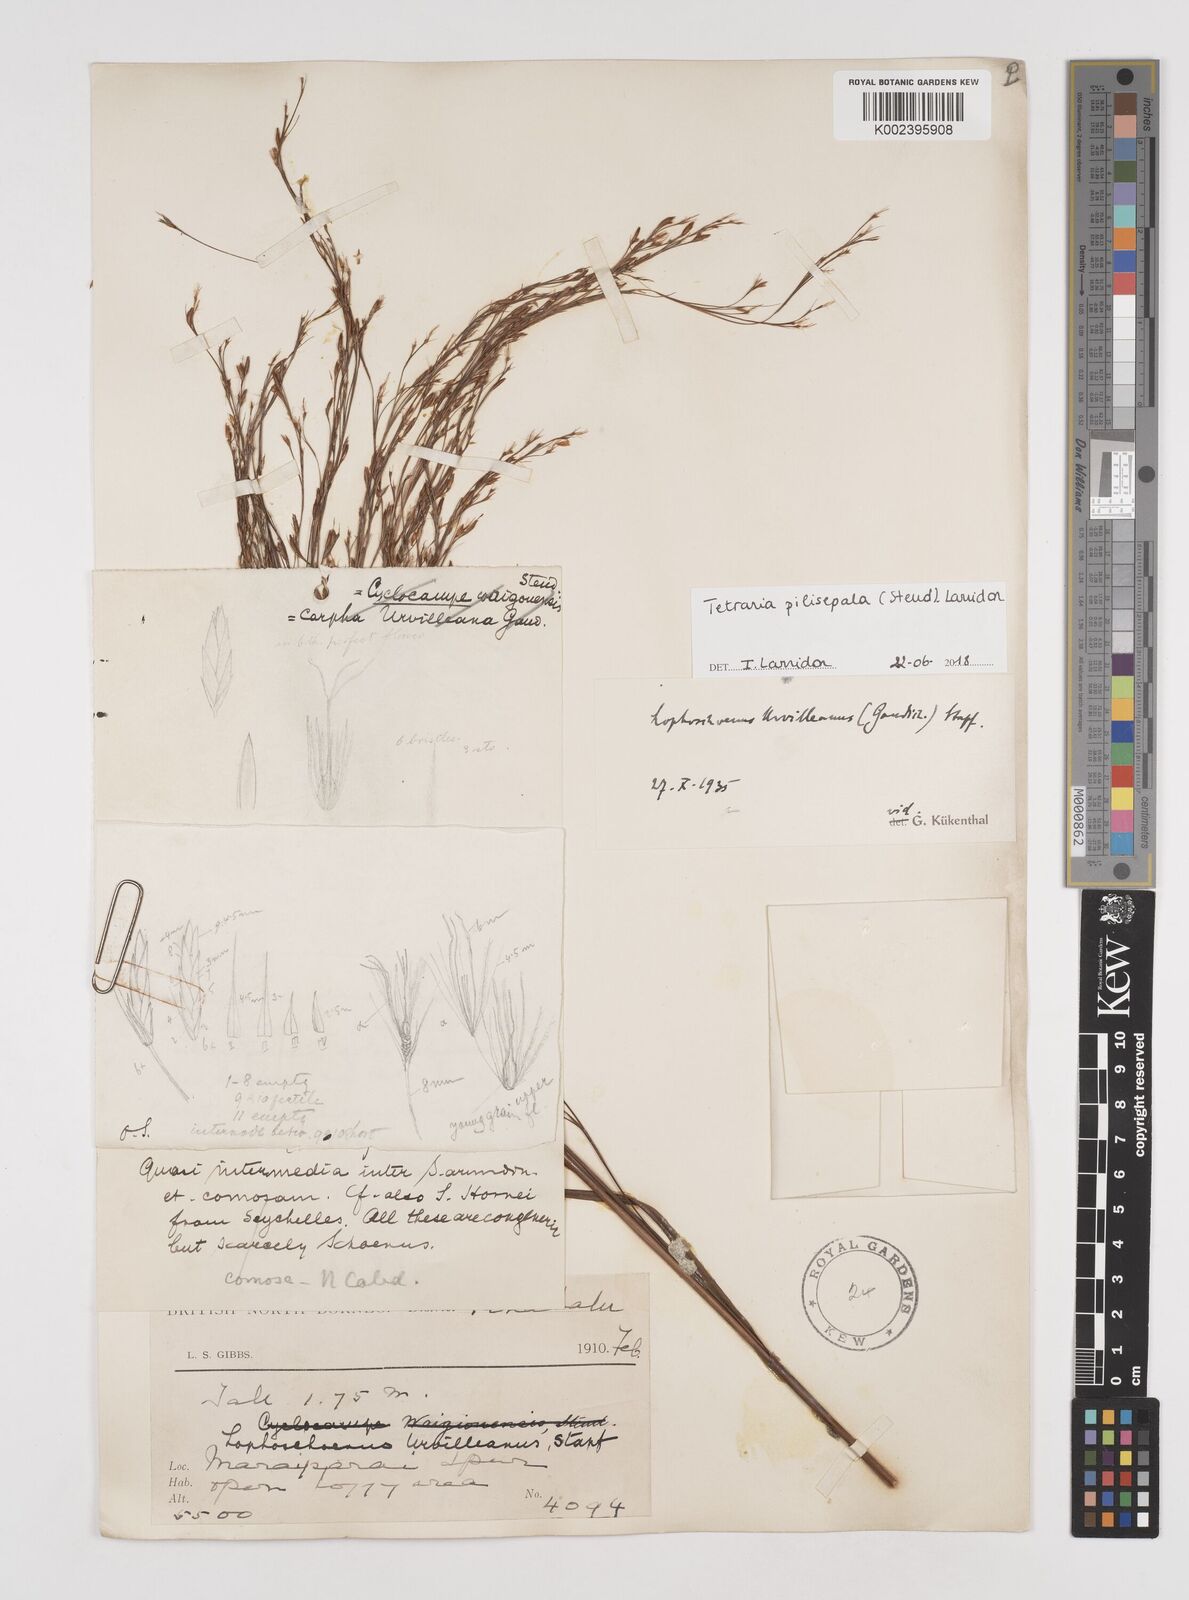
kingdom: Plantae
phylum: Tracheophyta
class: Liliopsida
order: Poales
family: Cyperaceae
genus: Tetraria
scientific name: Tetraria pilisepala
